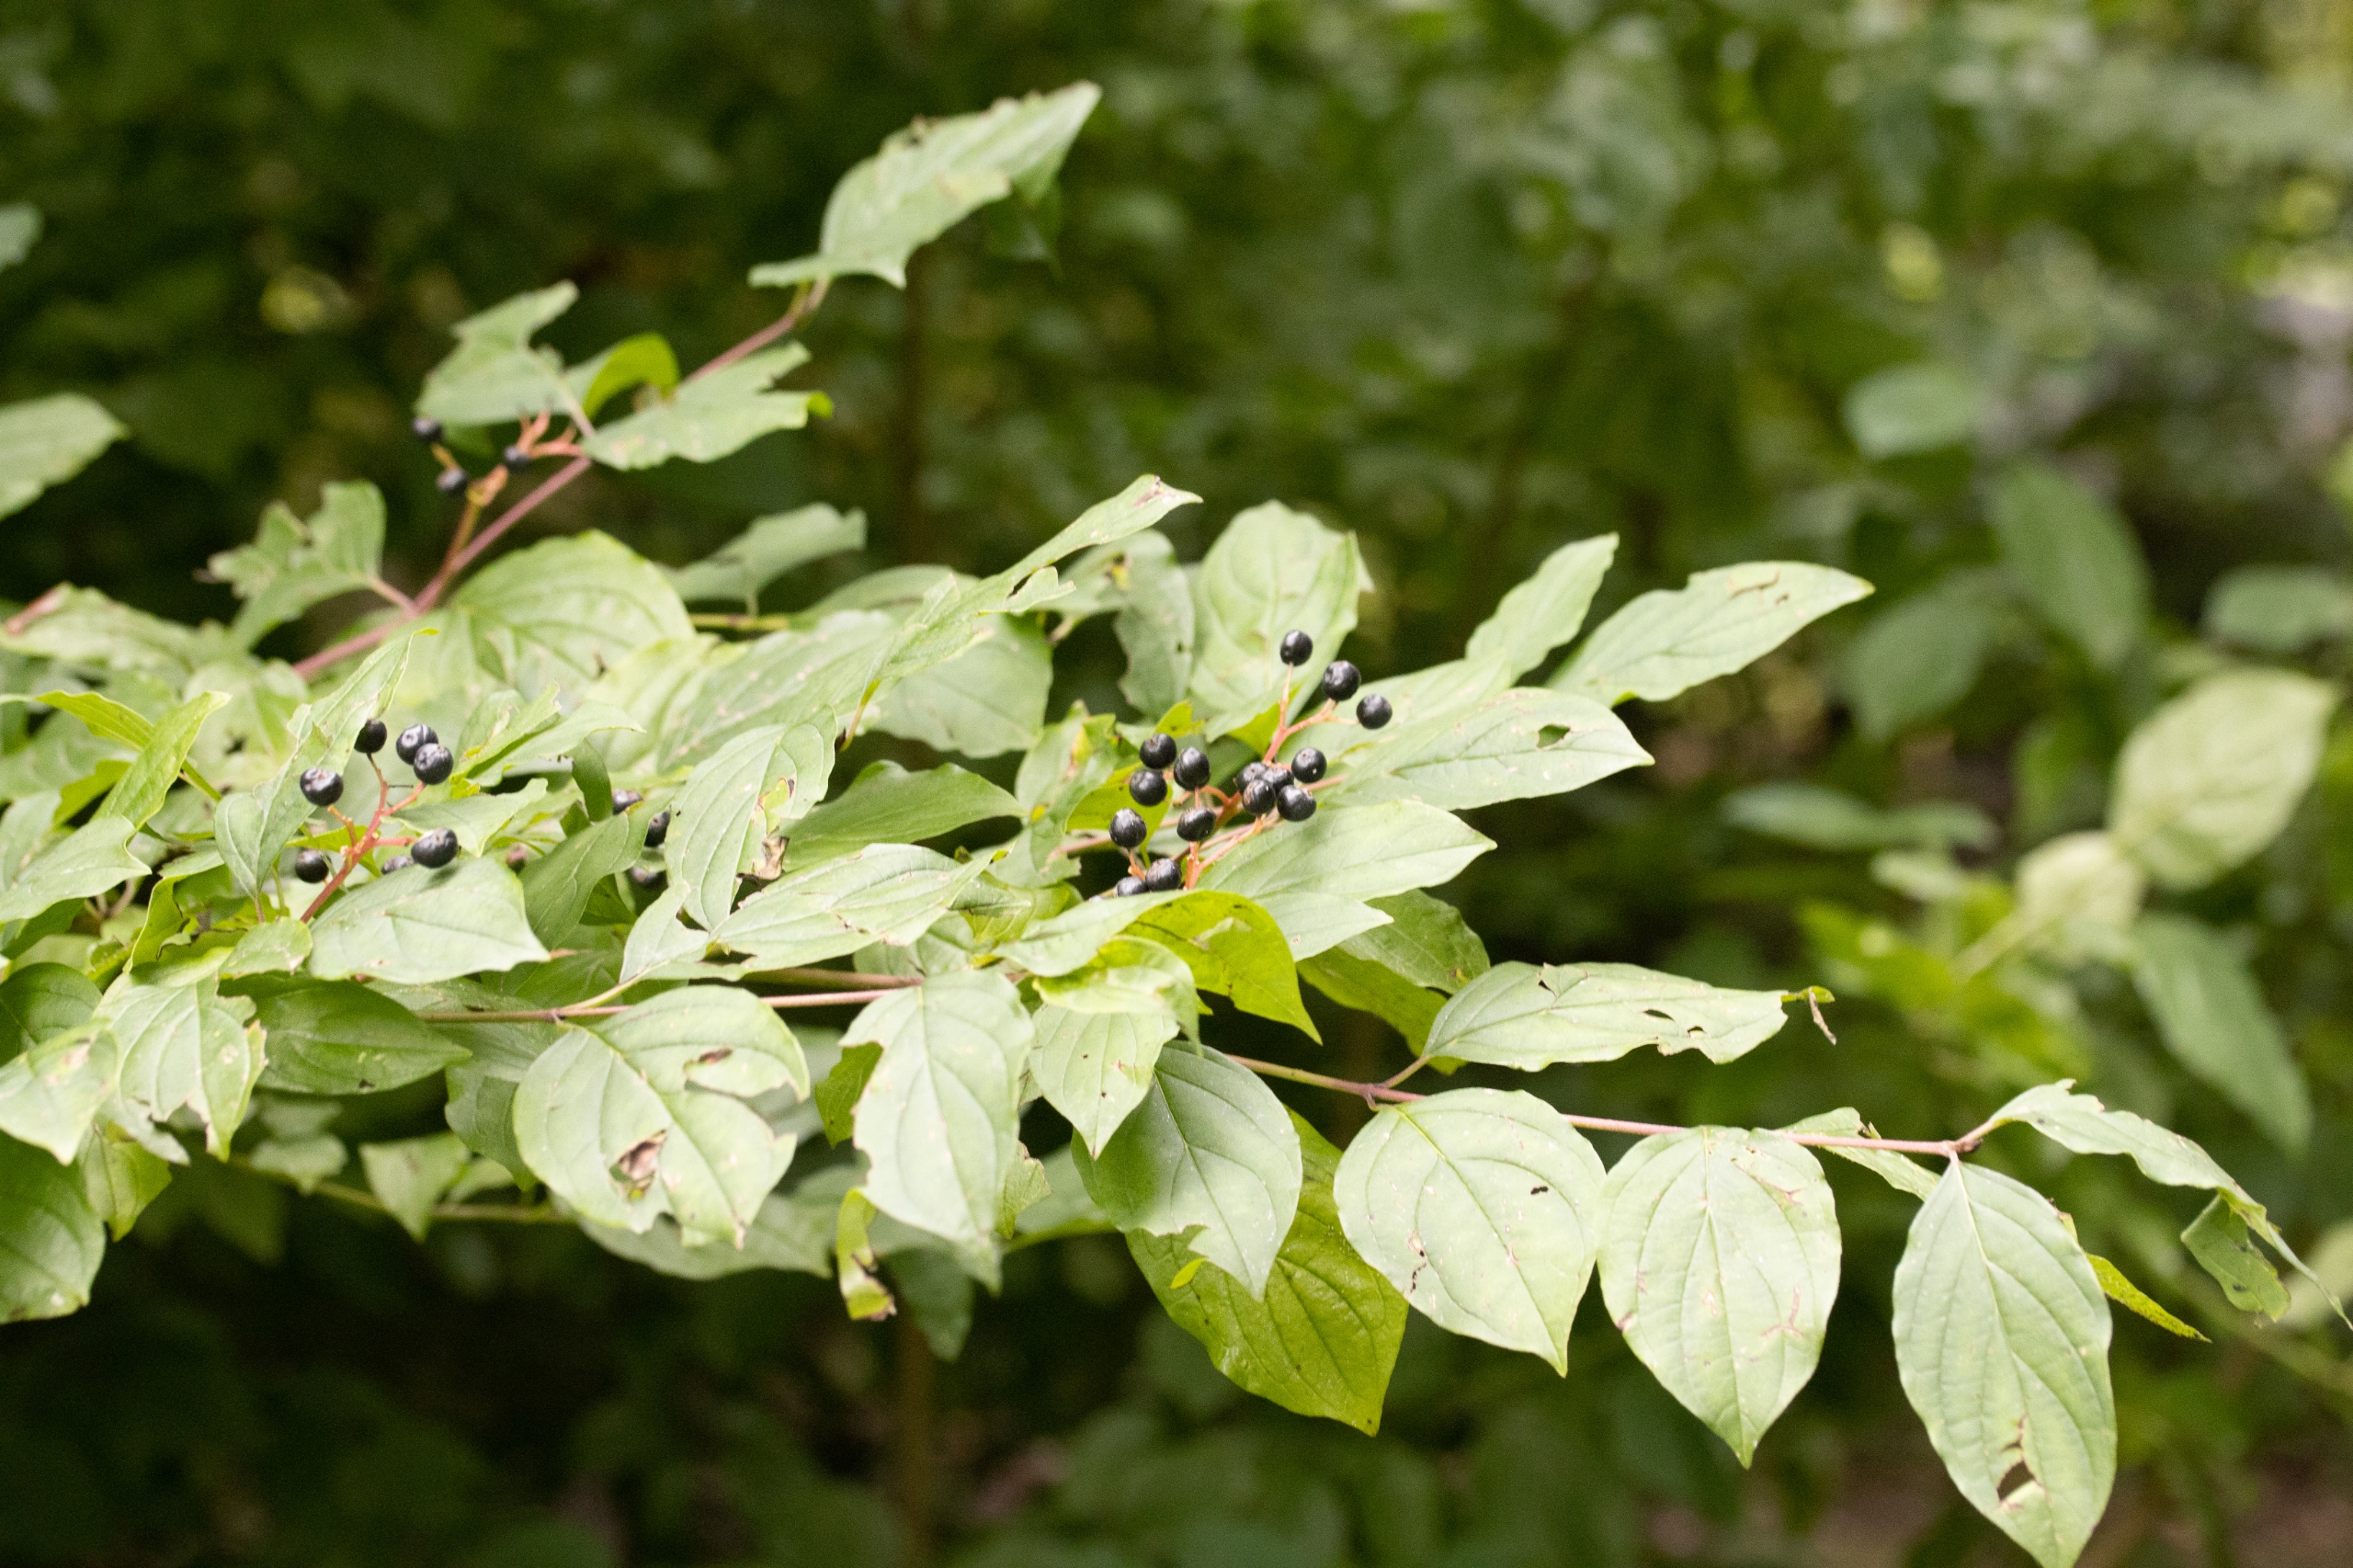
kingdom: Plantae
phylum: Tracheophyta
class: Magnoliopsida
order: Cornales
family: Cornaceae
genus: Cornus
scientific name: Cornus sanguinea
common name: Rød kornel
